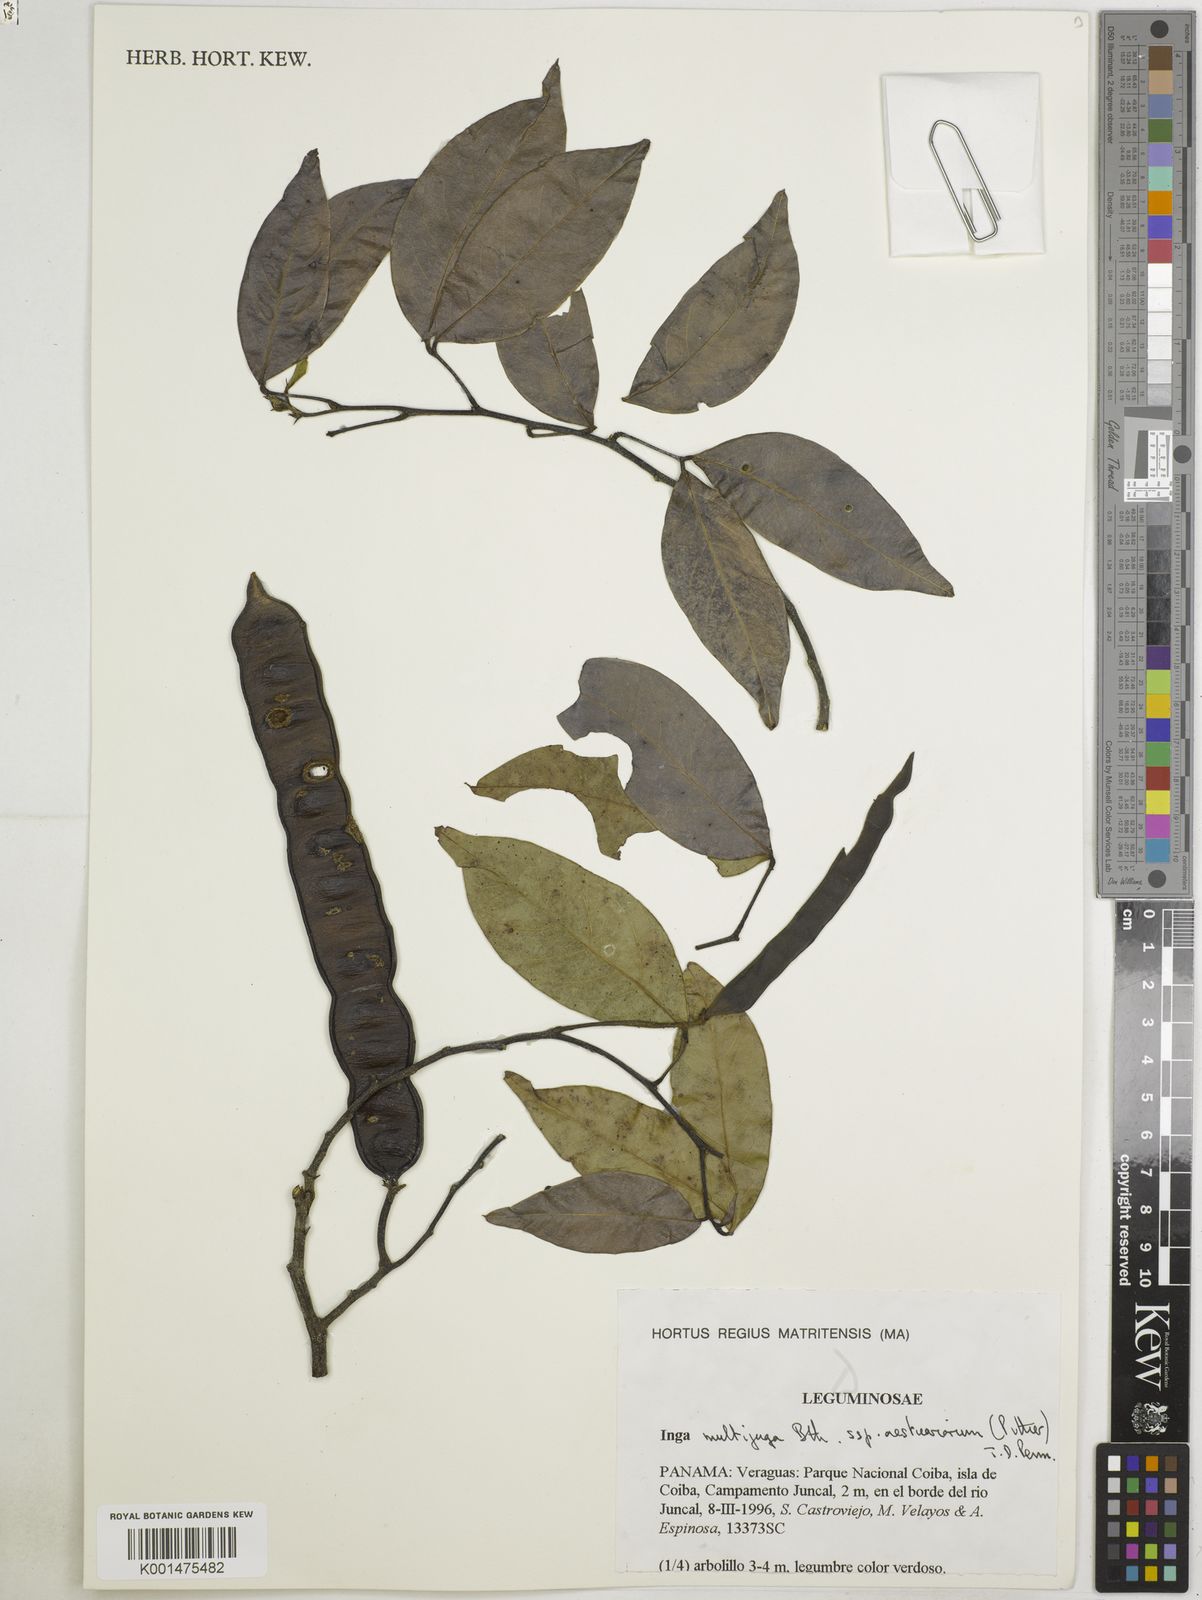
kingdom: Plantae
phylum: Tracheophyta
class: Magnoliopsida
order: Fabales
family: Fabaceae
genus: Inga
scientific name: Inga multijuga
